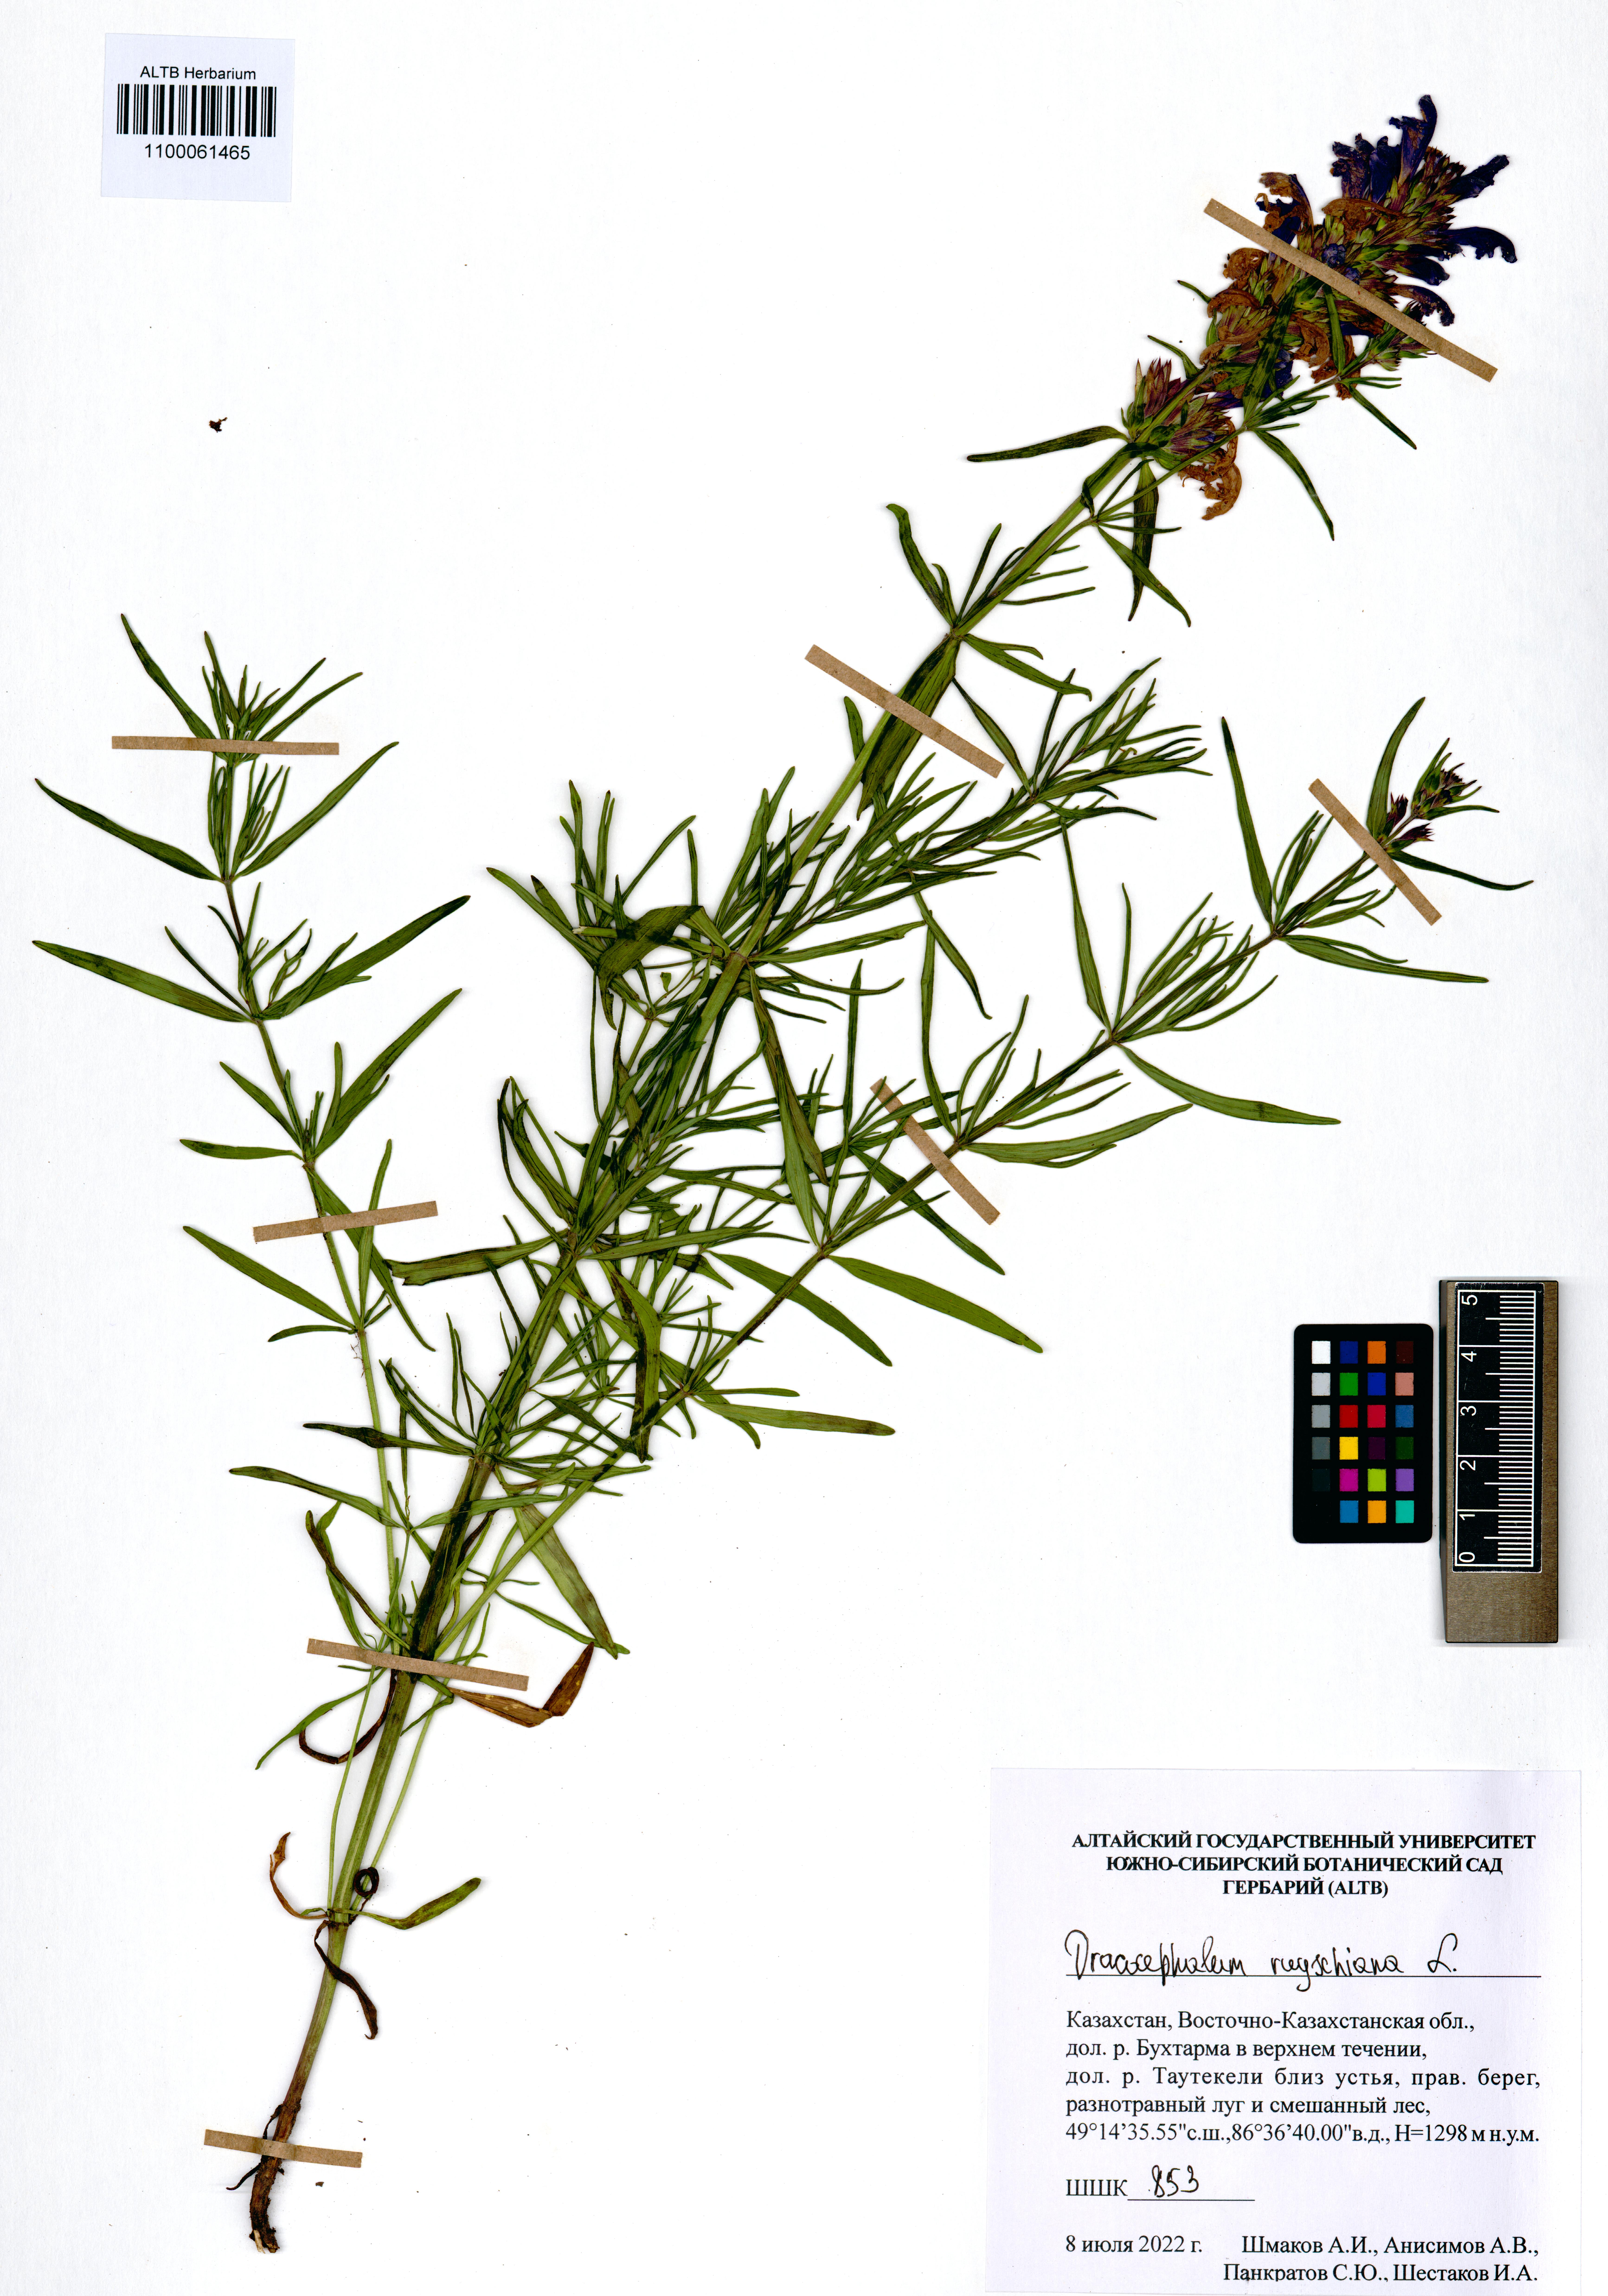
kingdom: Plantae
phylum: Tracheophyta
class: Magnoliopsida
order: Lamiales
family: Lamiaceae
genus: Dracocephalum
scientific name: Dracocephalum ruyschiana
